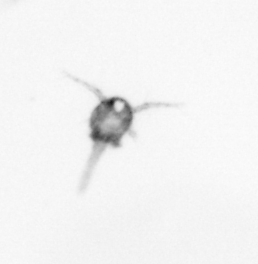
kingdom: Animalia
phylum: Arthropoda
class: Copepoda
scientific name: Copepoda
